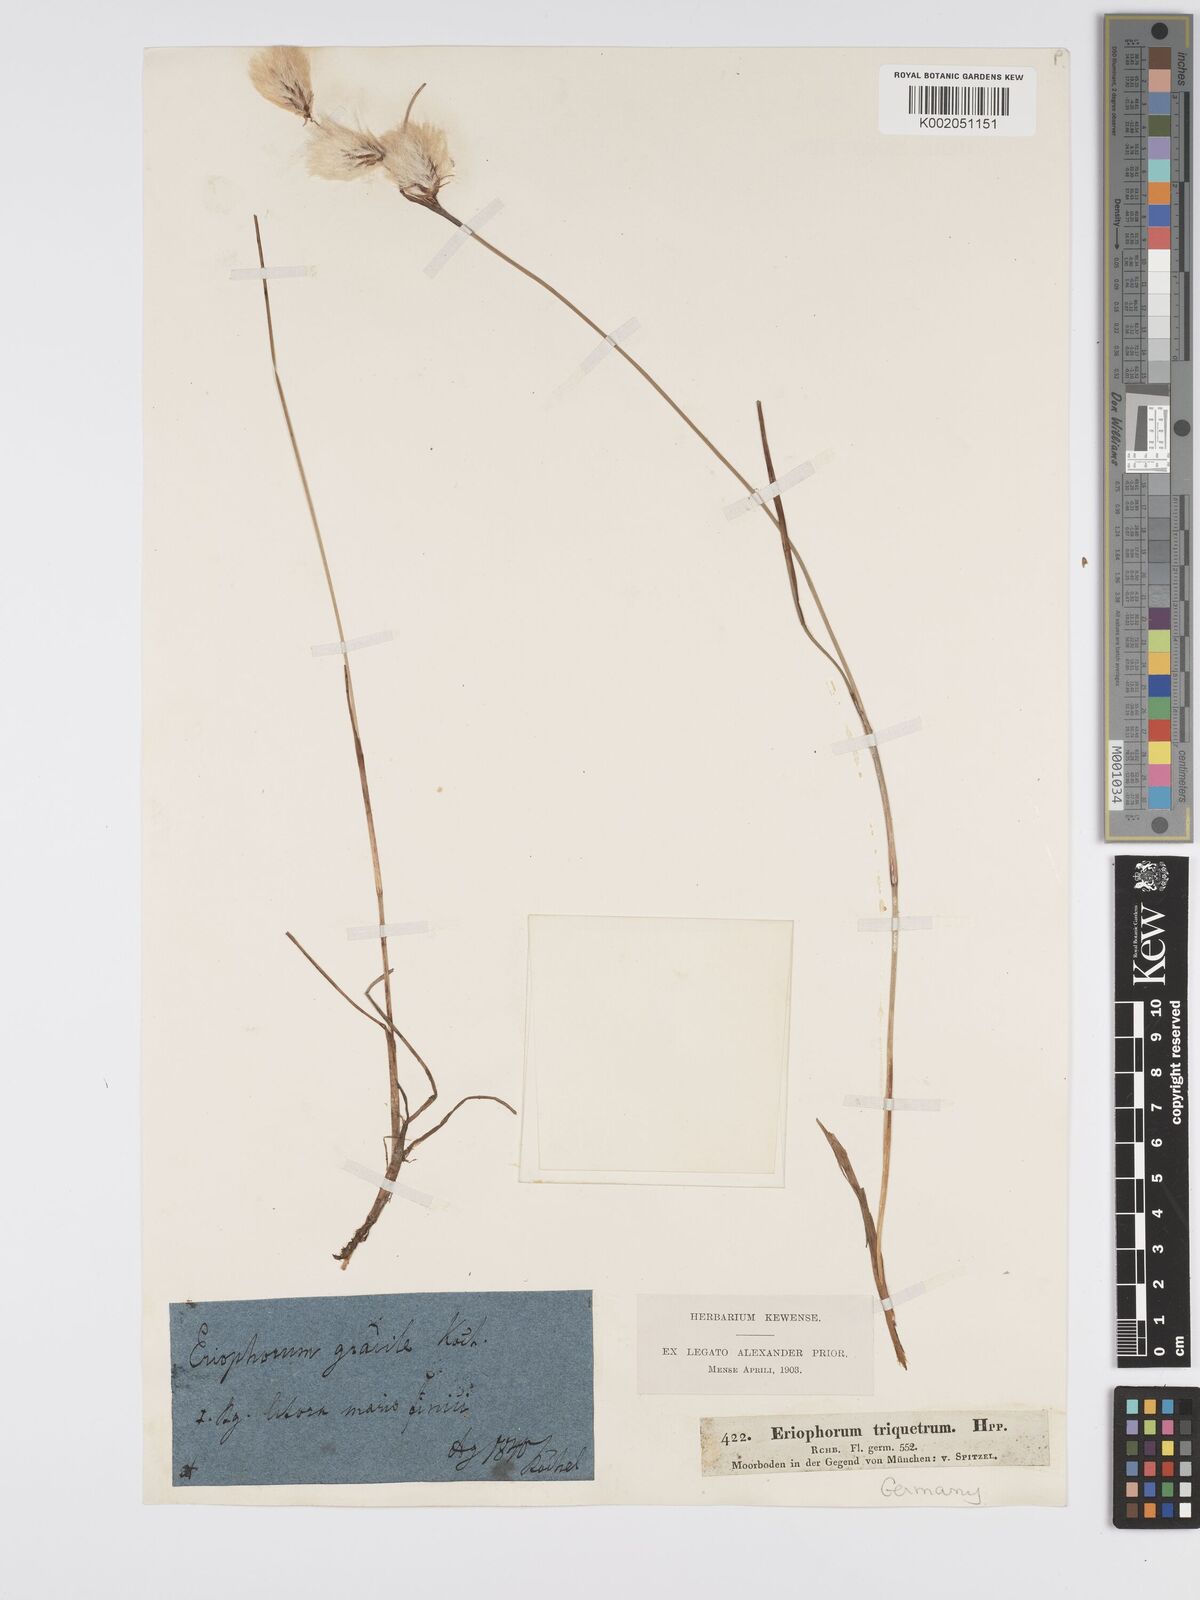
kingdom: Plantae
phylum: Tracheophyta
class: Liliopsida
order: Poales
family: Cyperaceae
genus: Eriophorum
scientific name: Eriophorum gracile
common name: Slender cottongrass
